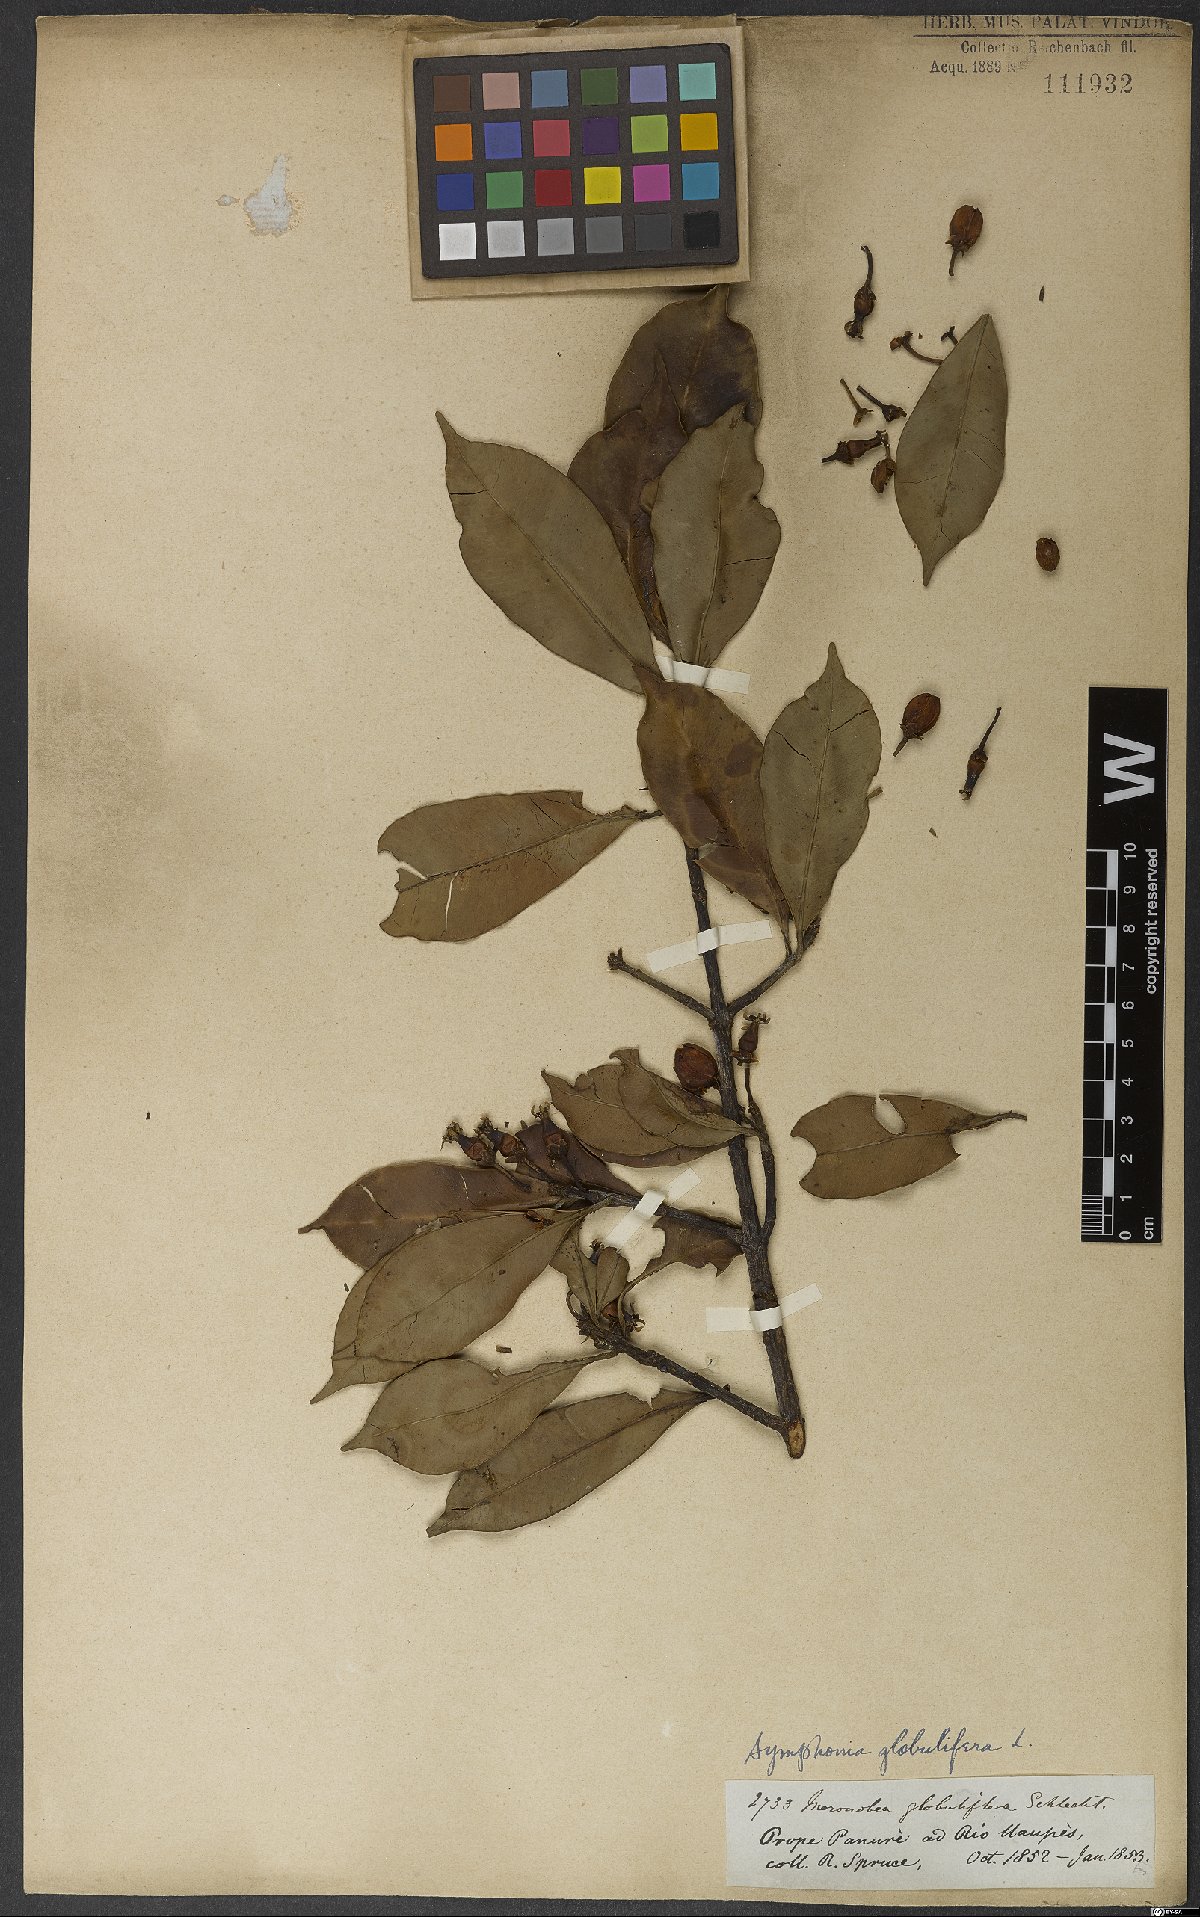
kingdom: Plantae
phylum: Tracheophyta
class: Magnoliopsida
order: Malpighiales
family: Clusiaceae
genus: Symphonia
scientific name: Symphonia globulifera
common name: Boarwood
